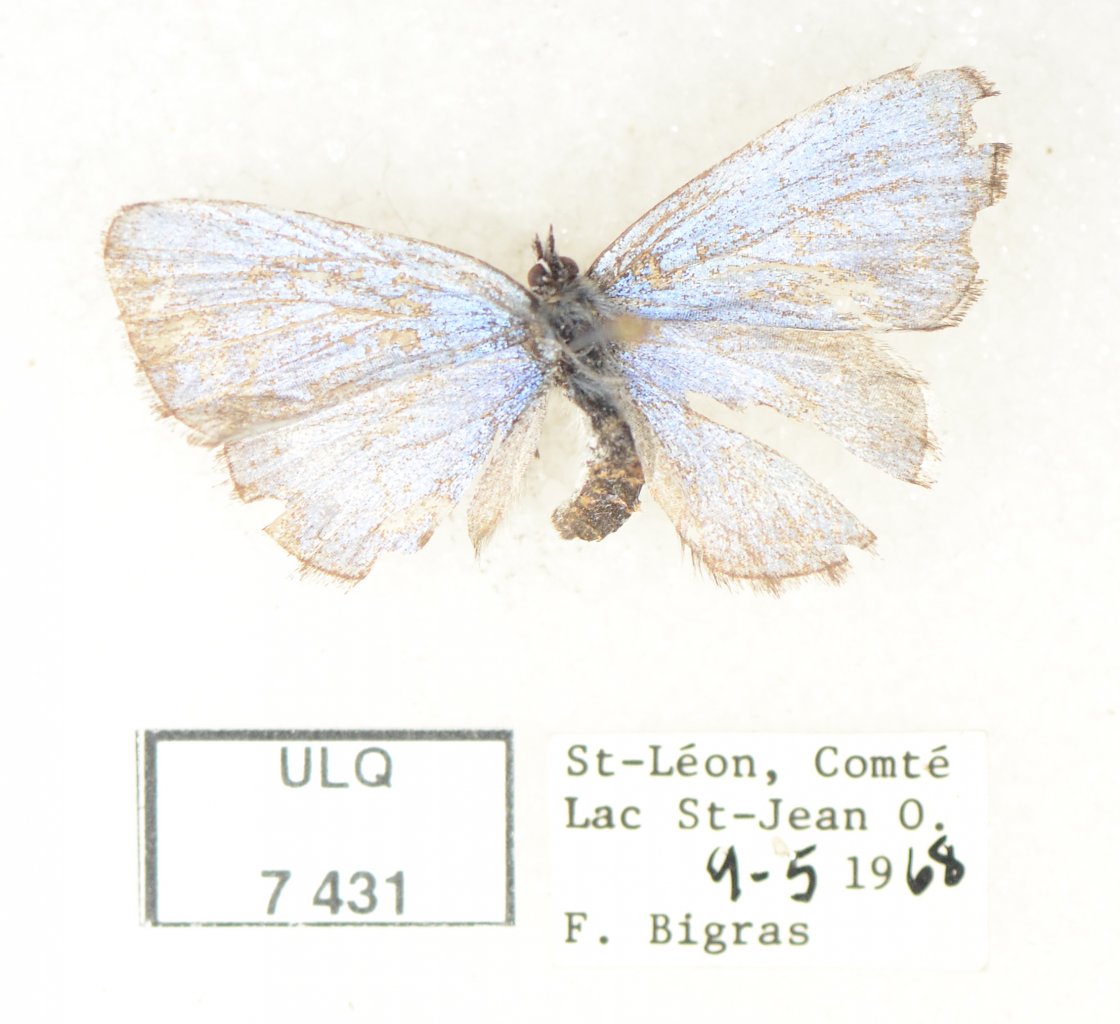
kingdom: Animalia
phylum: Arthropoda
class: Insecta
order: Lepidoptera
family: Lycaenidae
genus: Celastrina
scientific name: Celastrina lucia
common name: Northern Spring Azure
